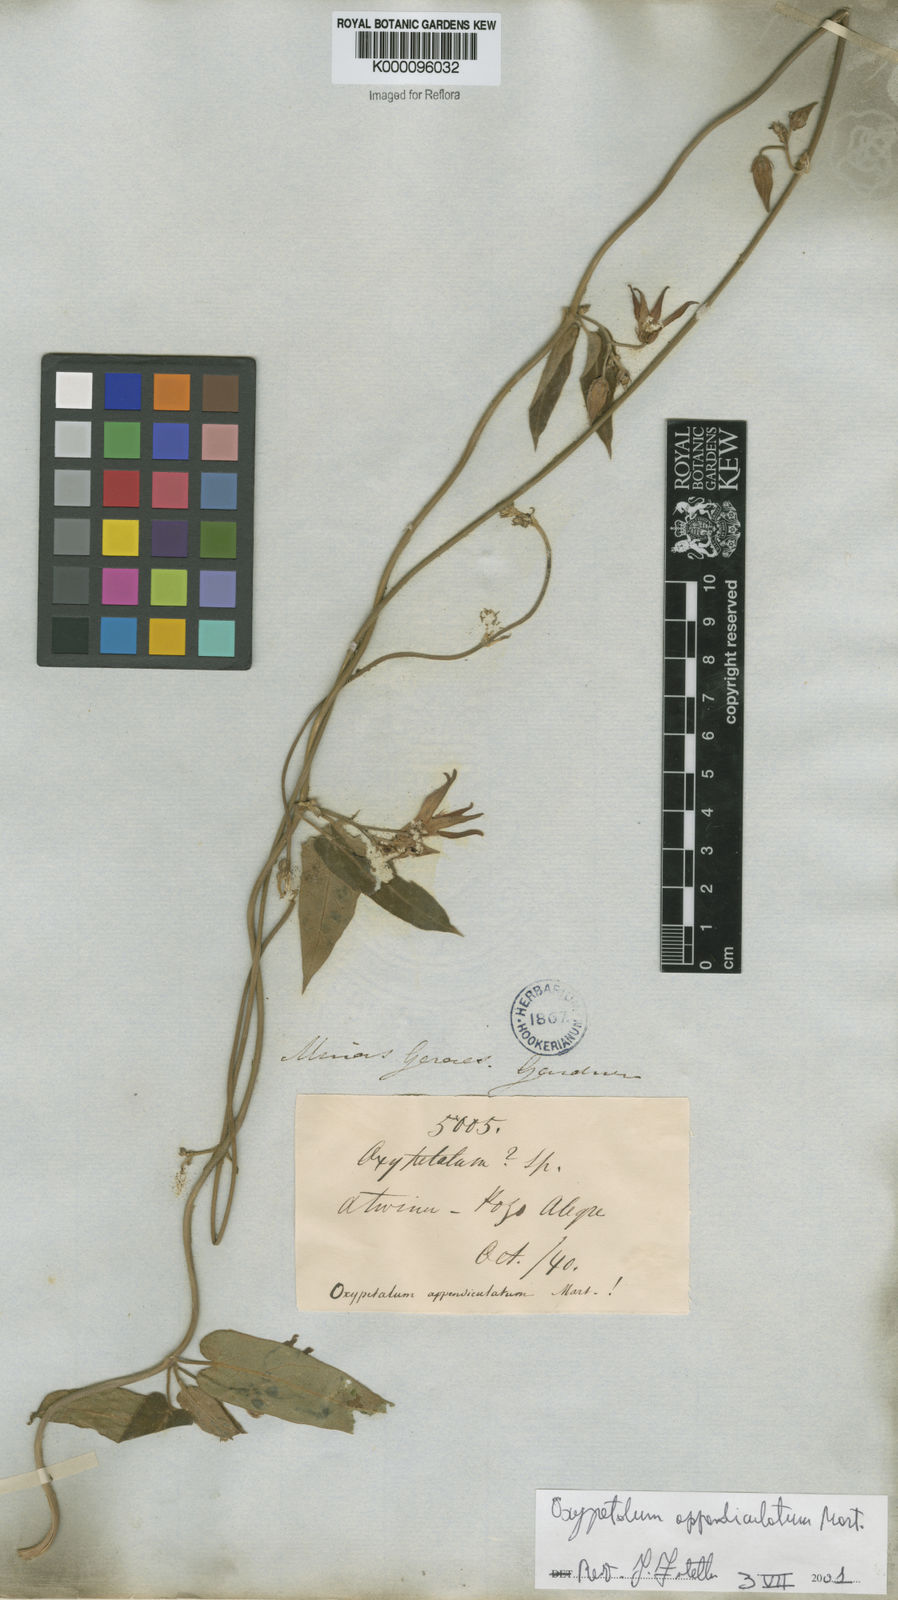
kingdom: Plantae
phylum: Tracheophyta
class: Magnoliopsida
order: Gentianales
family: Apocynaceae
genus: Oxypetalum
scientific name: Oxypetalum appendiculatum
